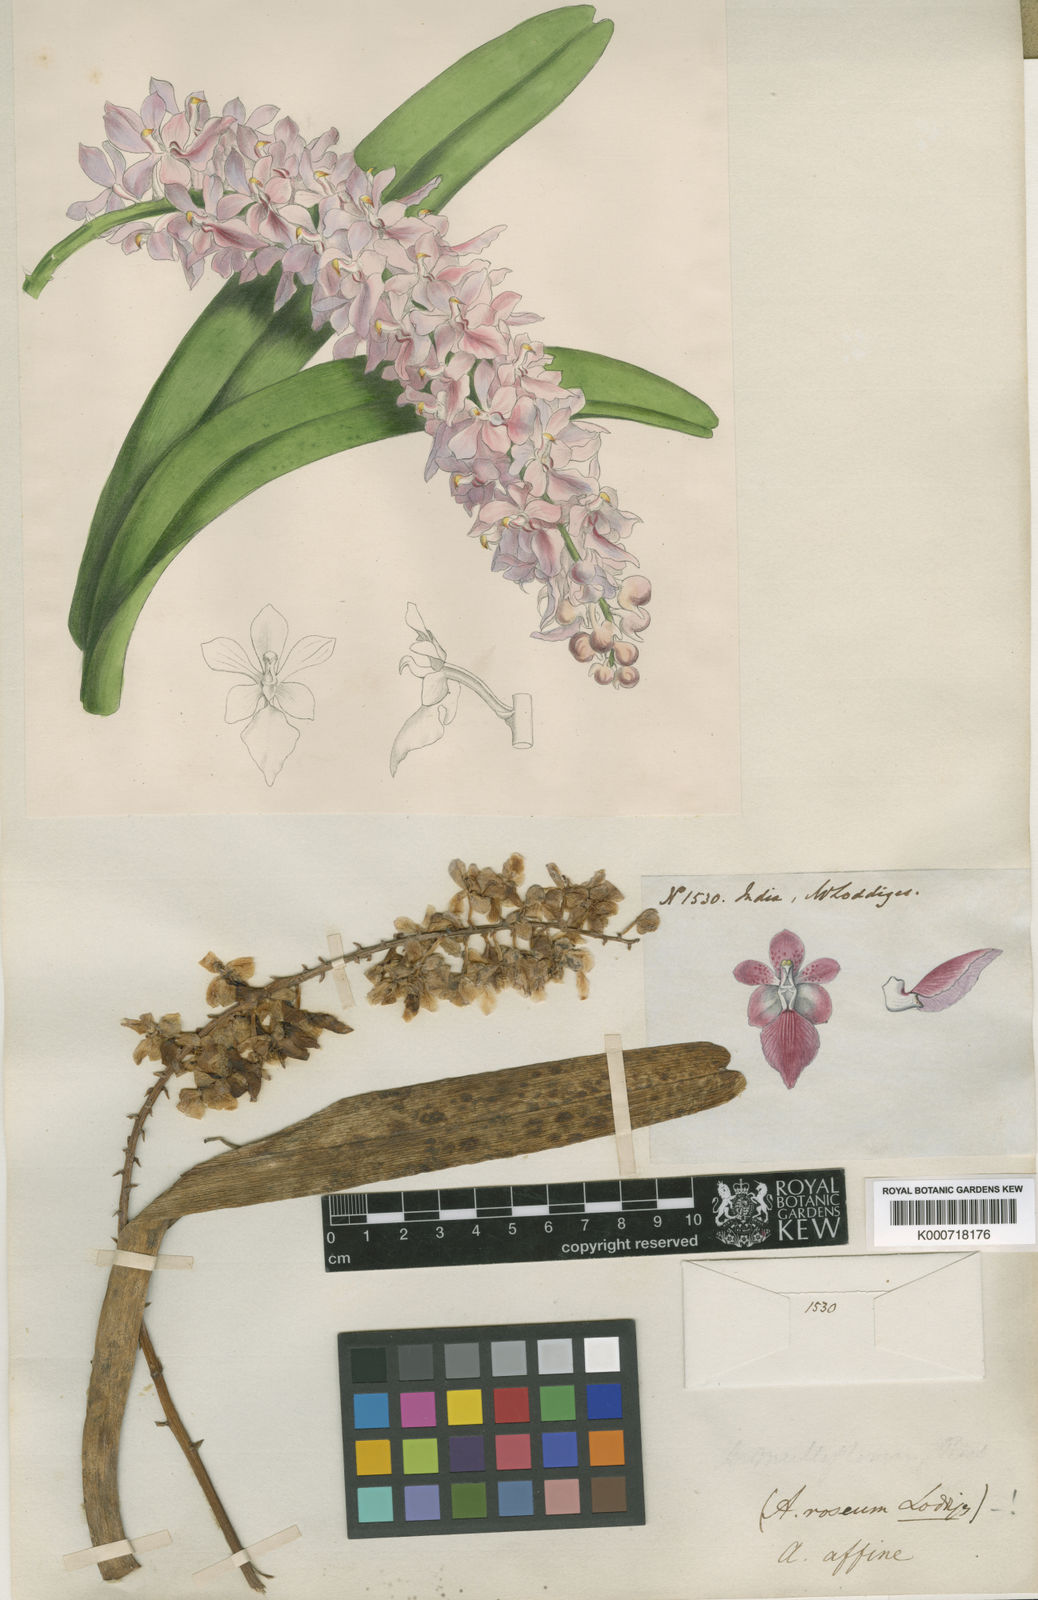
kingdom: Plantae
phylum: Tracheophyta
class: Liliopsida
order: Asparagales
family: Orchidaceae
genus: Aerides
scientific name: Aerides multiflora
